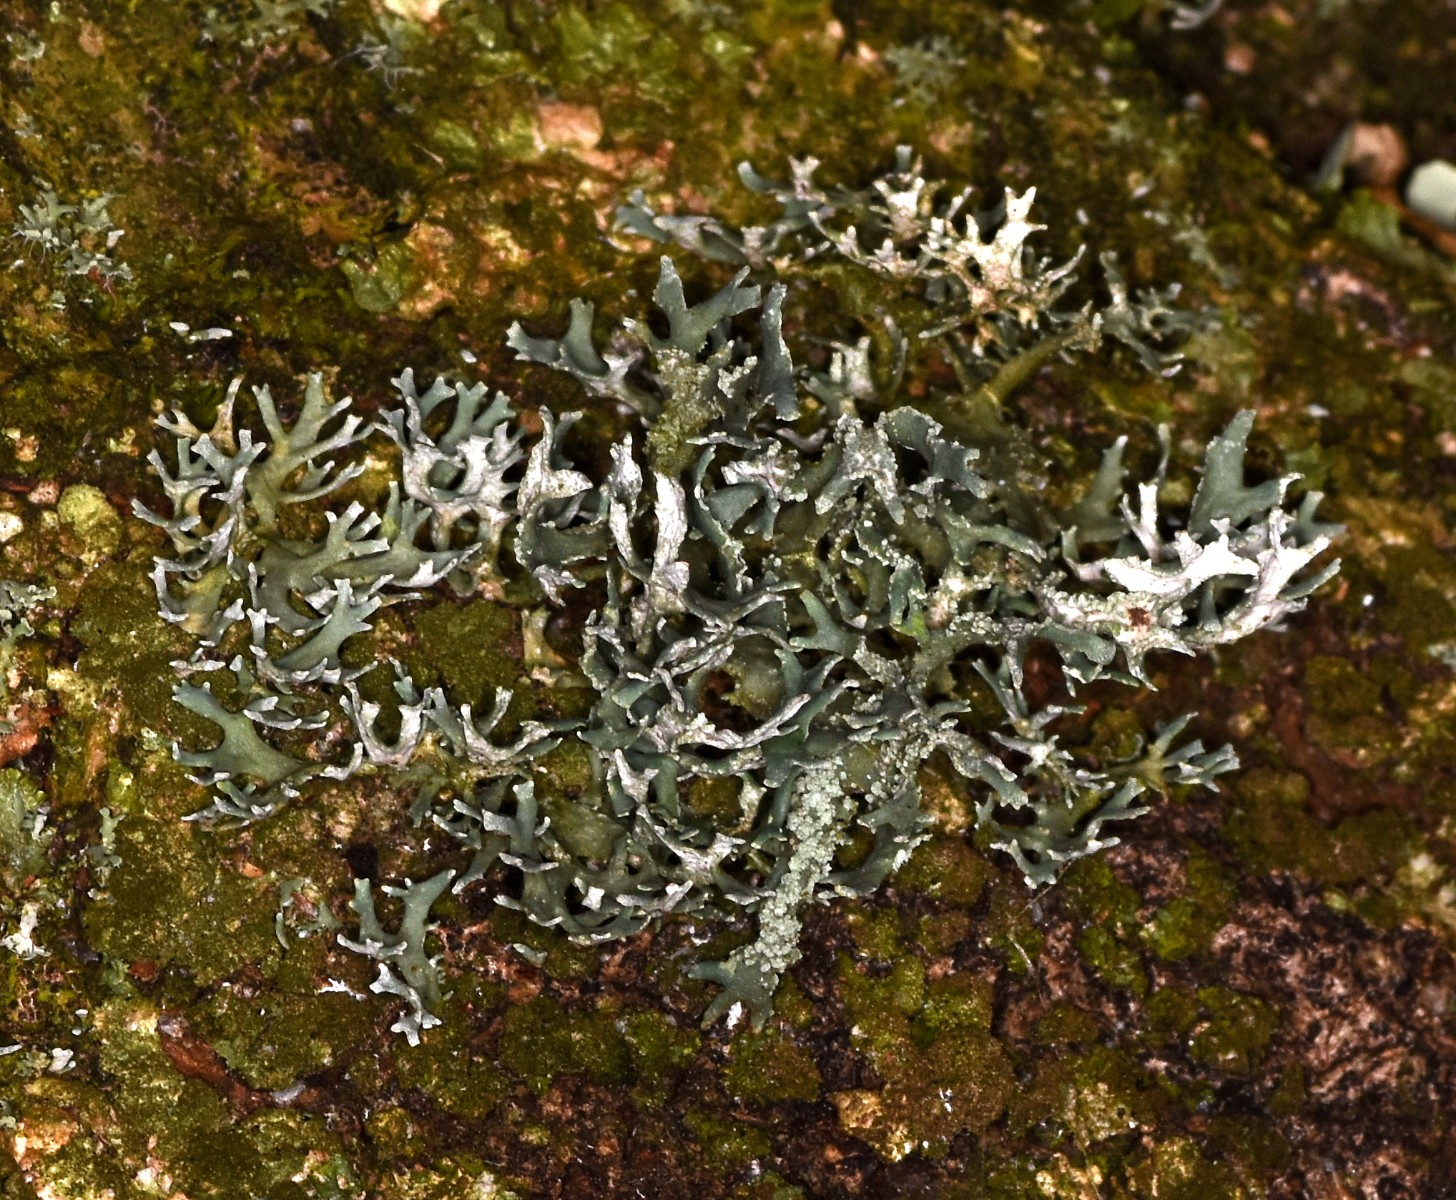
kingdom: Fungi
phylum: Ascomycota
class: Lecanoromycetes
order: Lecanorales
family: Parmeliaceae
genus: Evernia
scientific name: Evernia prunastri
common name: almindelig slåenlav
